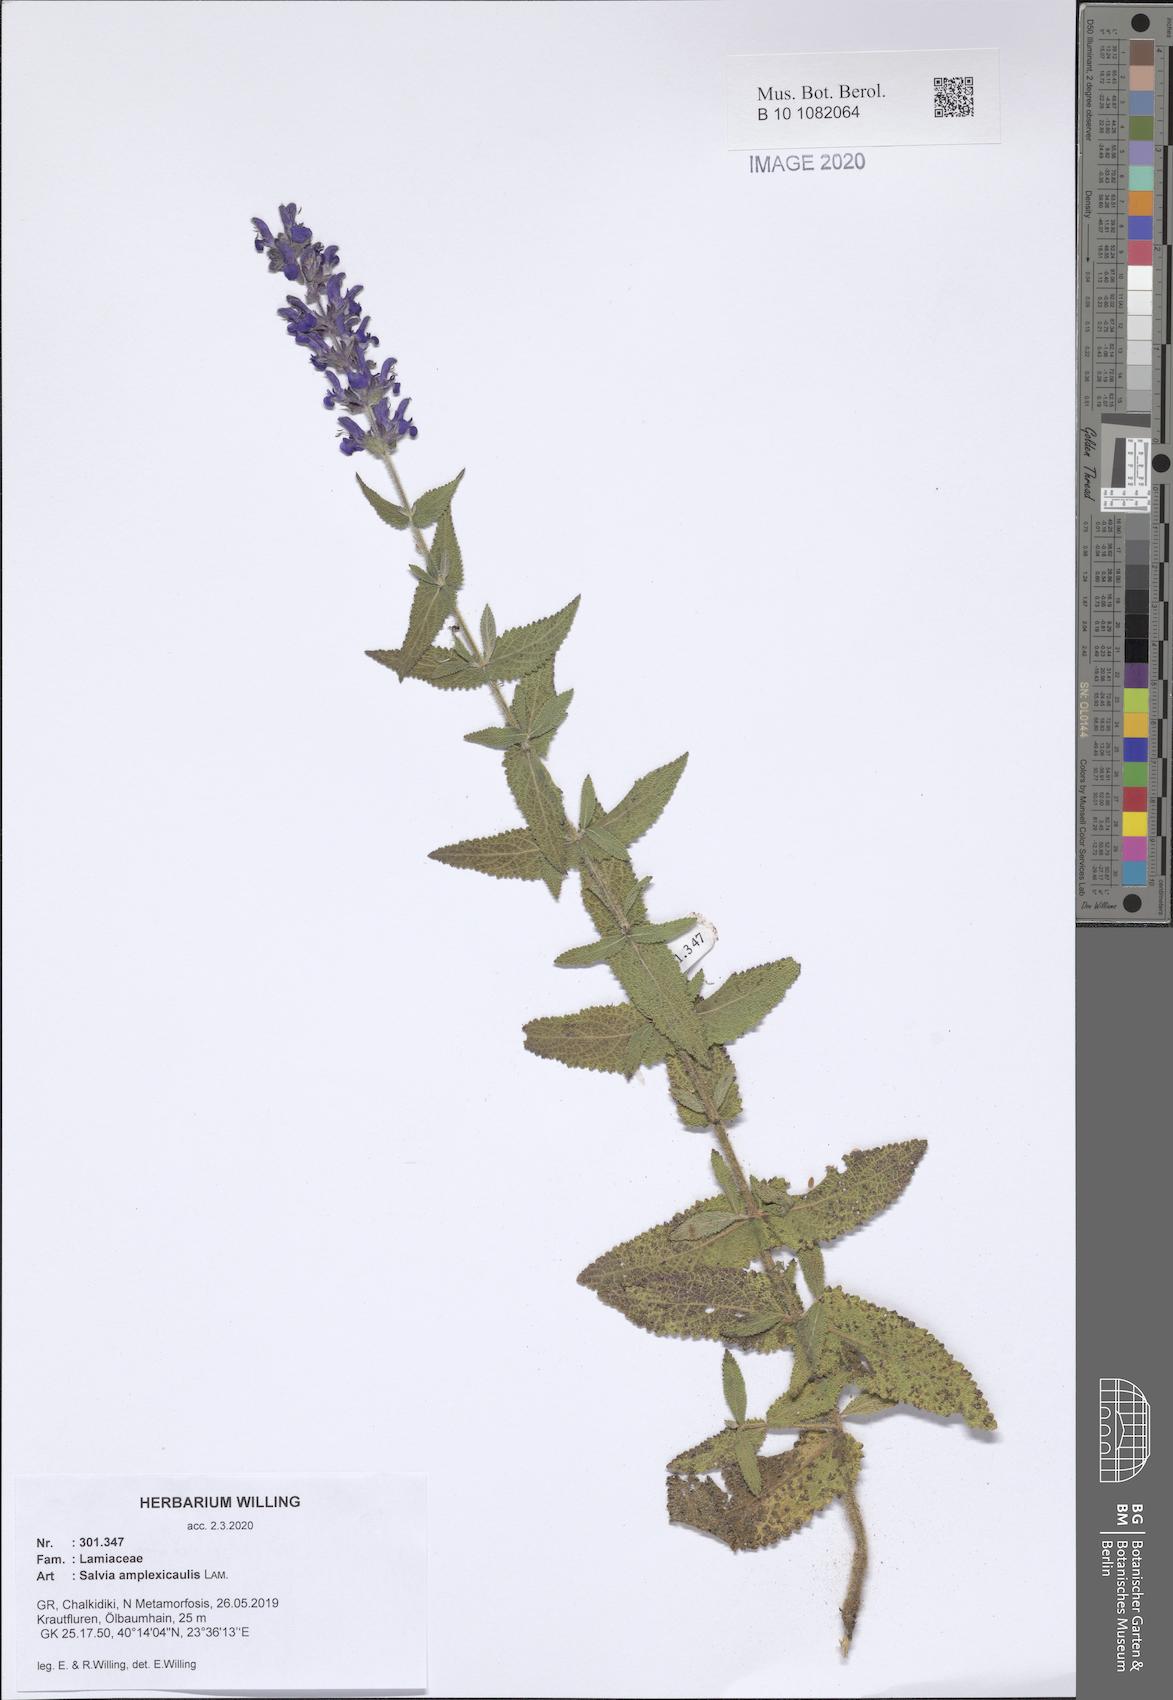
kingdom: Plantae
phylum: Tracheophyta
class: Magnoliopsida
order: Lamiales
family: Lamiaceae
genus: Salvia
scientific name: Salvia amplexicaulis
